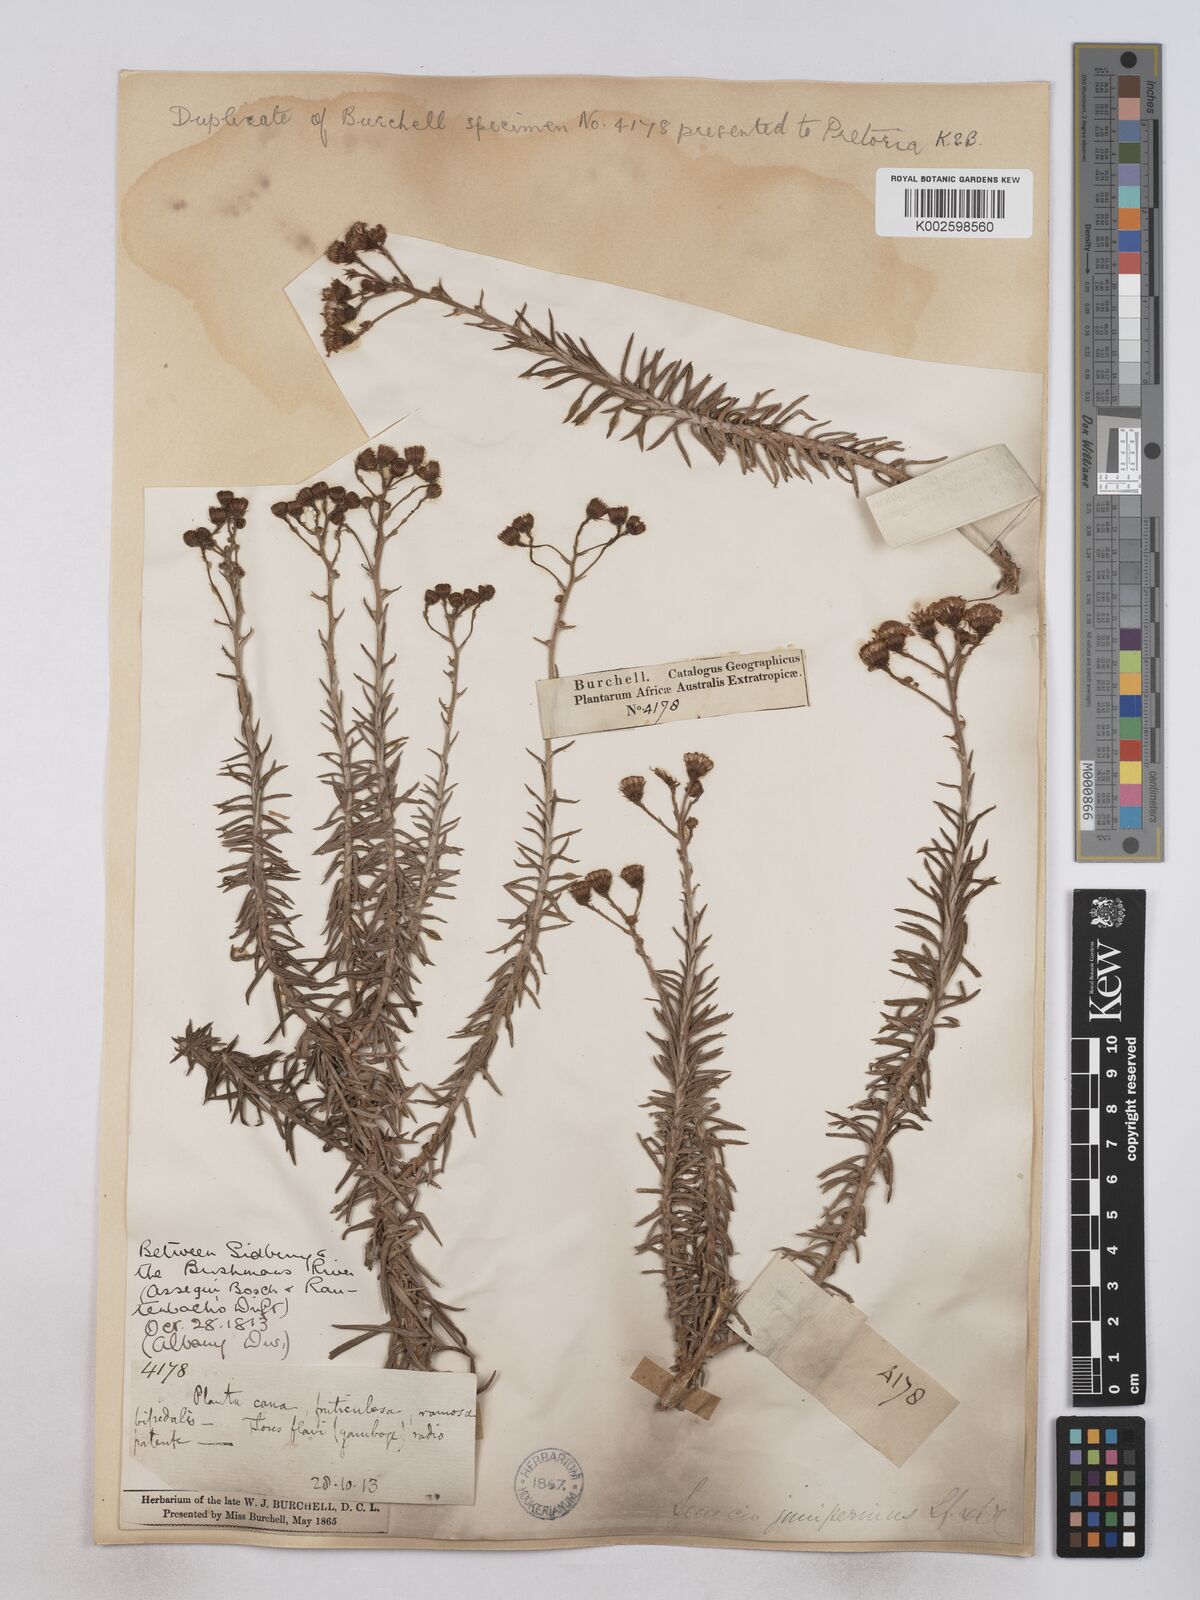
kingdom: Plantae
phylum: Tracheophyta
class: Magnoliopsida
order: Asterales
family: Asteraceae
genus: Senecio
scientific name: Senecio juniperinus
